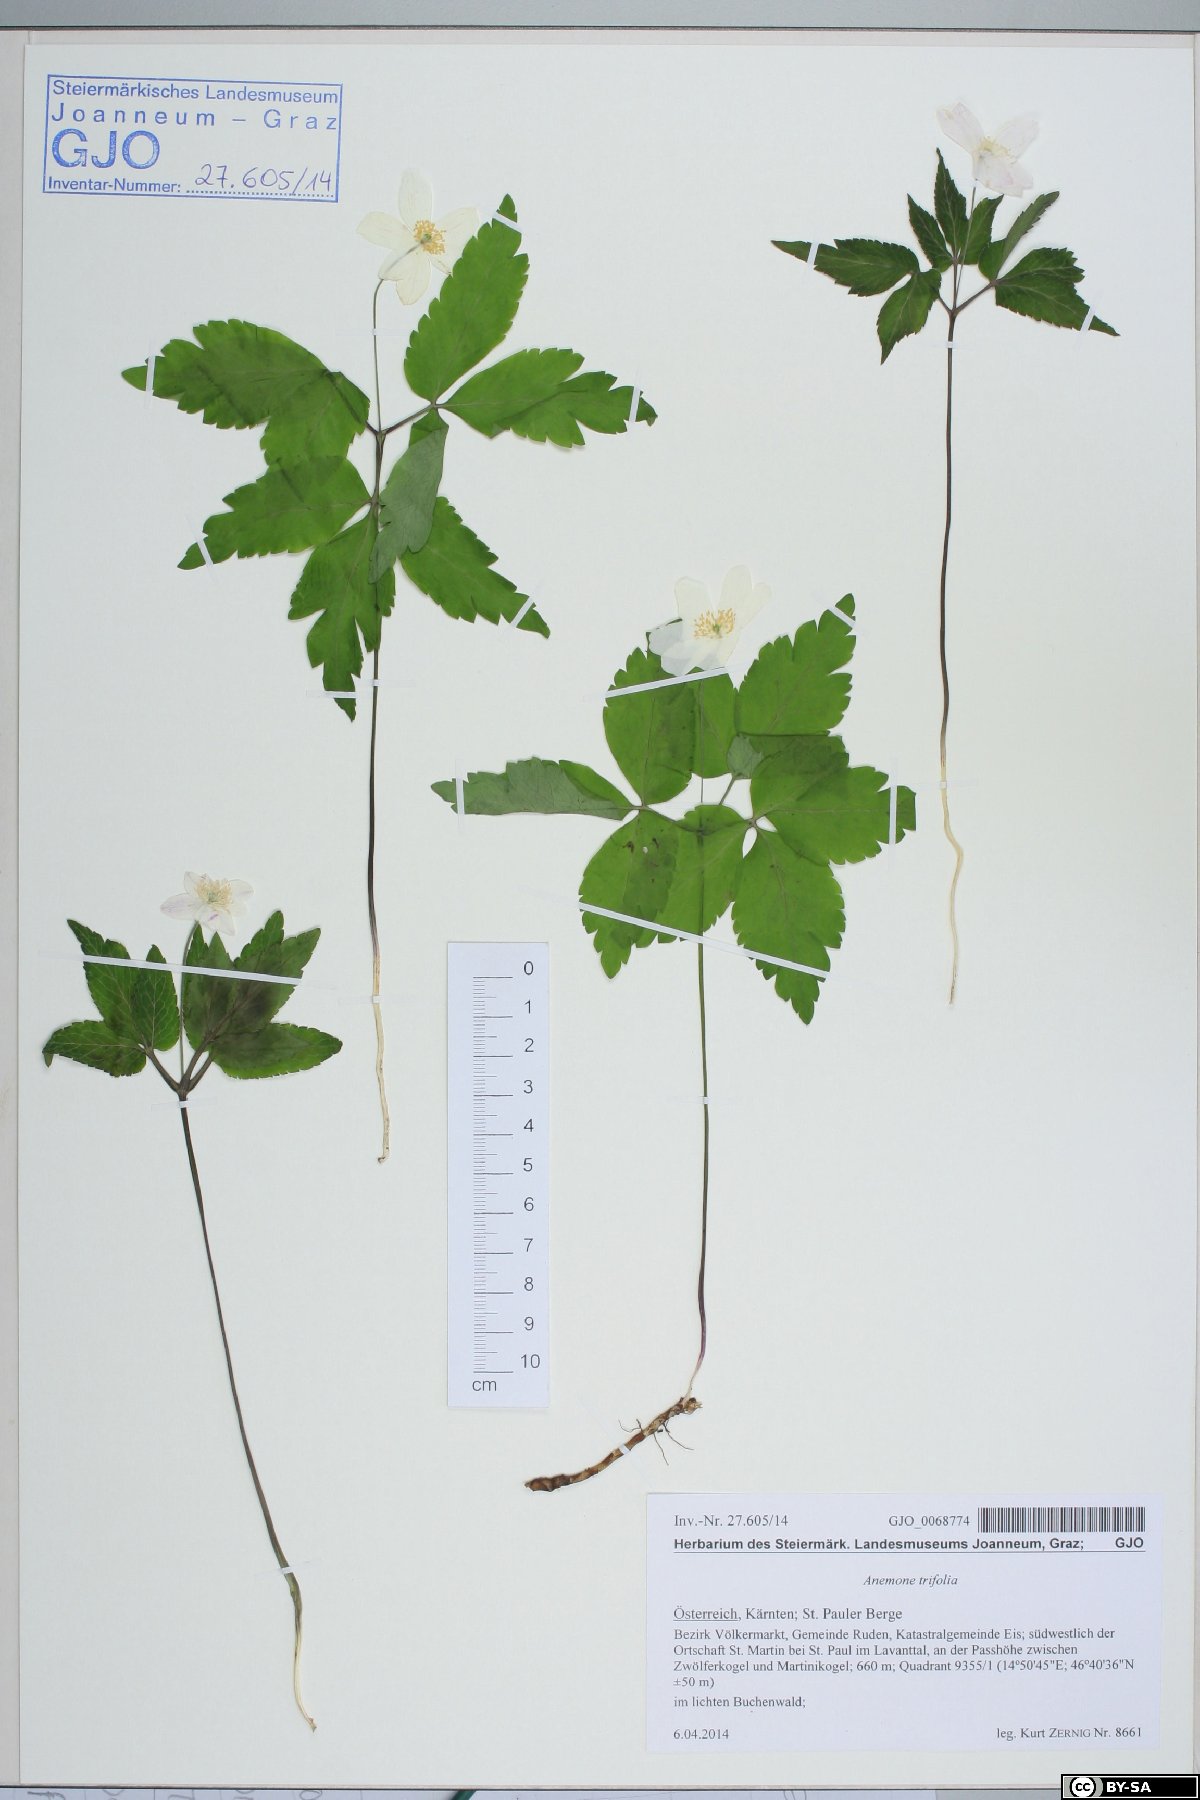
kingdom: Plantae
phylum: Tracheophyta
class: Magnoliopsida
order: Ranunculales
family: Ranunculaceae
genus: Anemone
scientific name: Anemone trifolia
